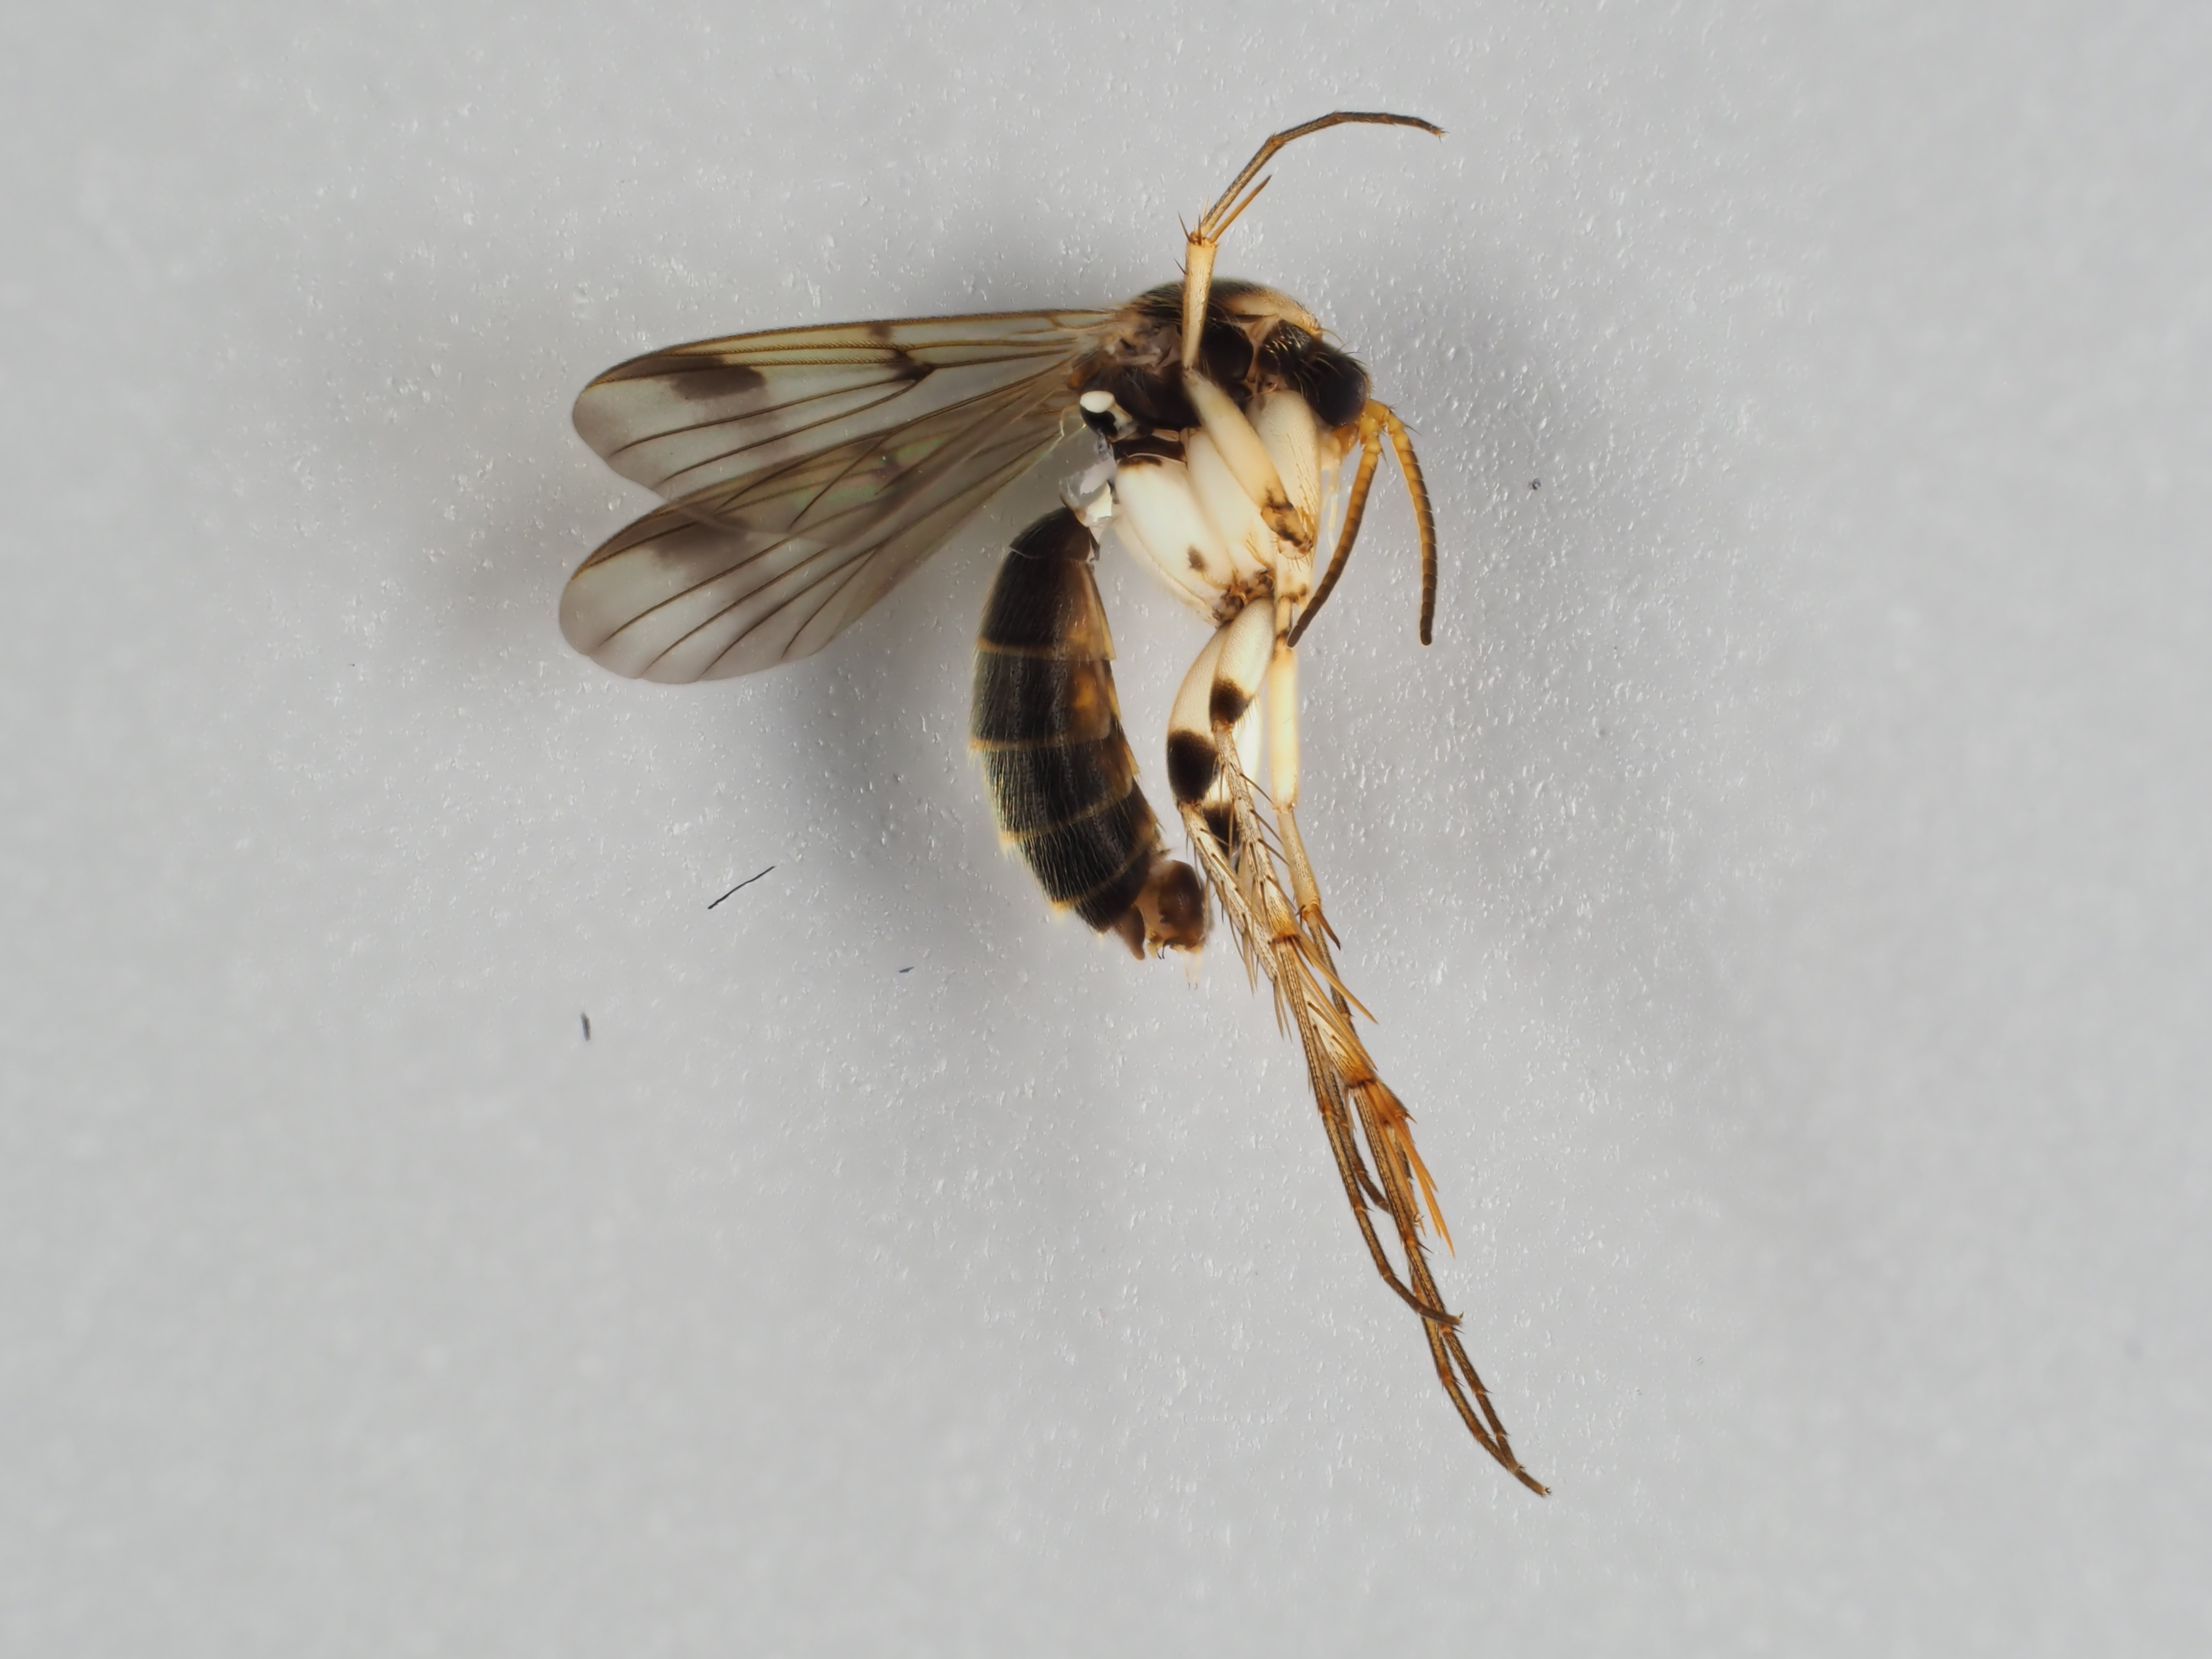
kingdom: Animalia
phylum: Arthropoda
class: Insecta
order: Diptera
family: Mycetophilidae
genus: Dynatosoma
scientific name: Dynatosoma fuscicorne
